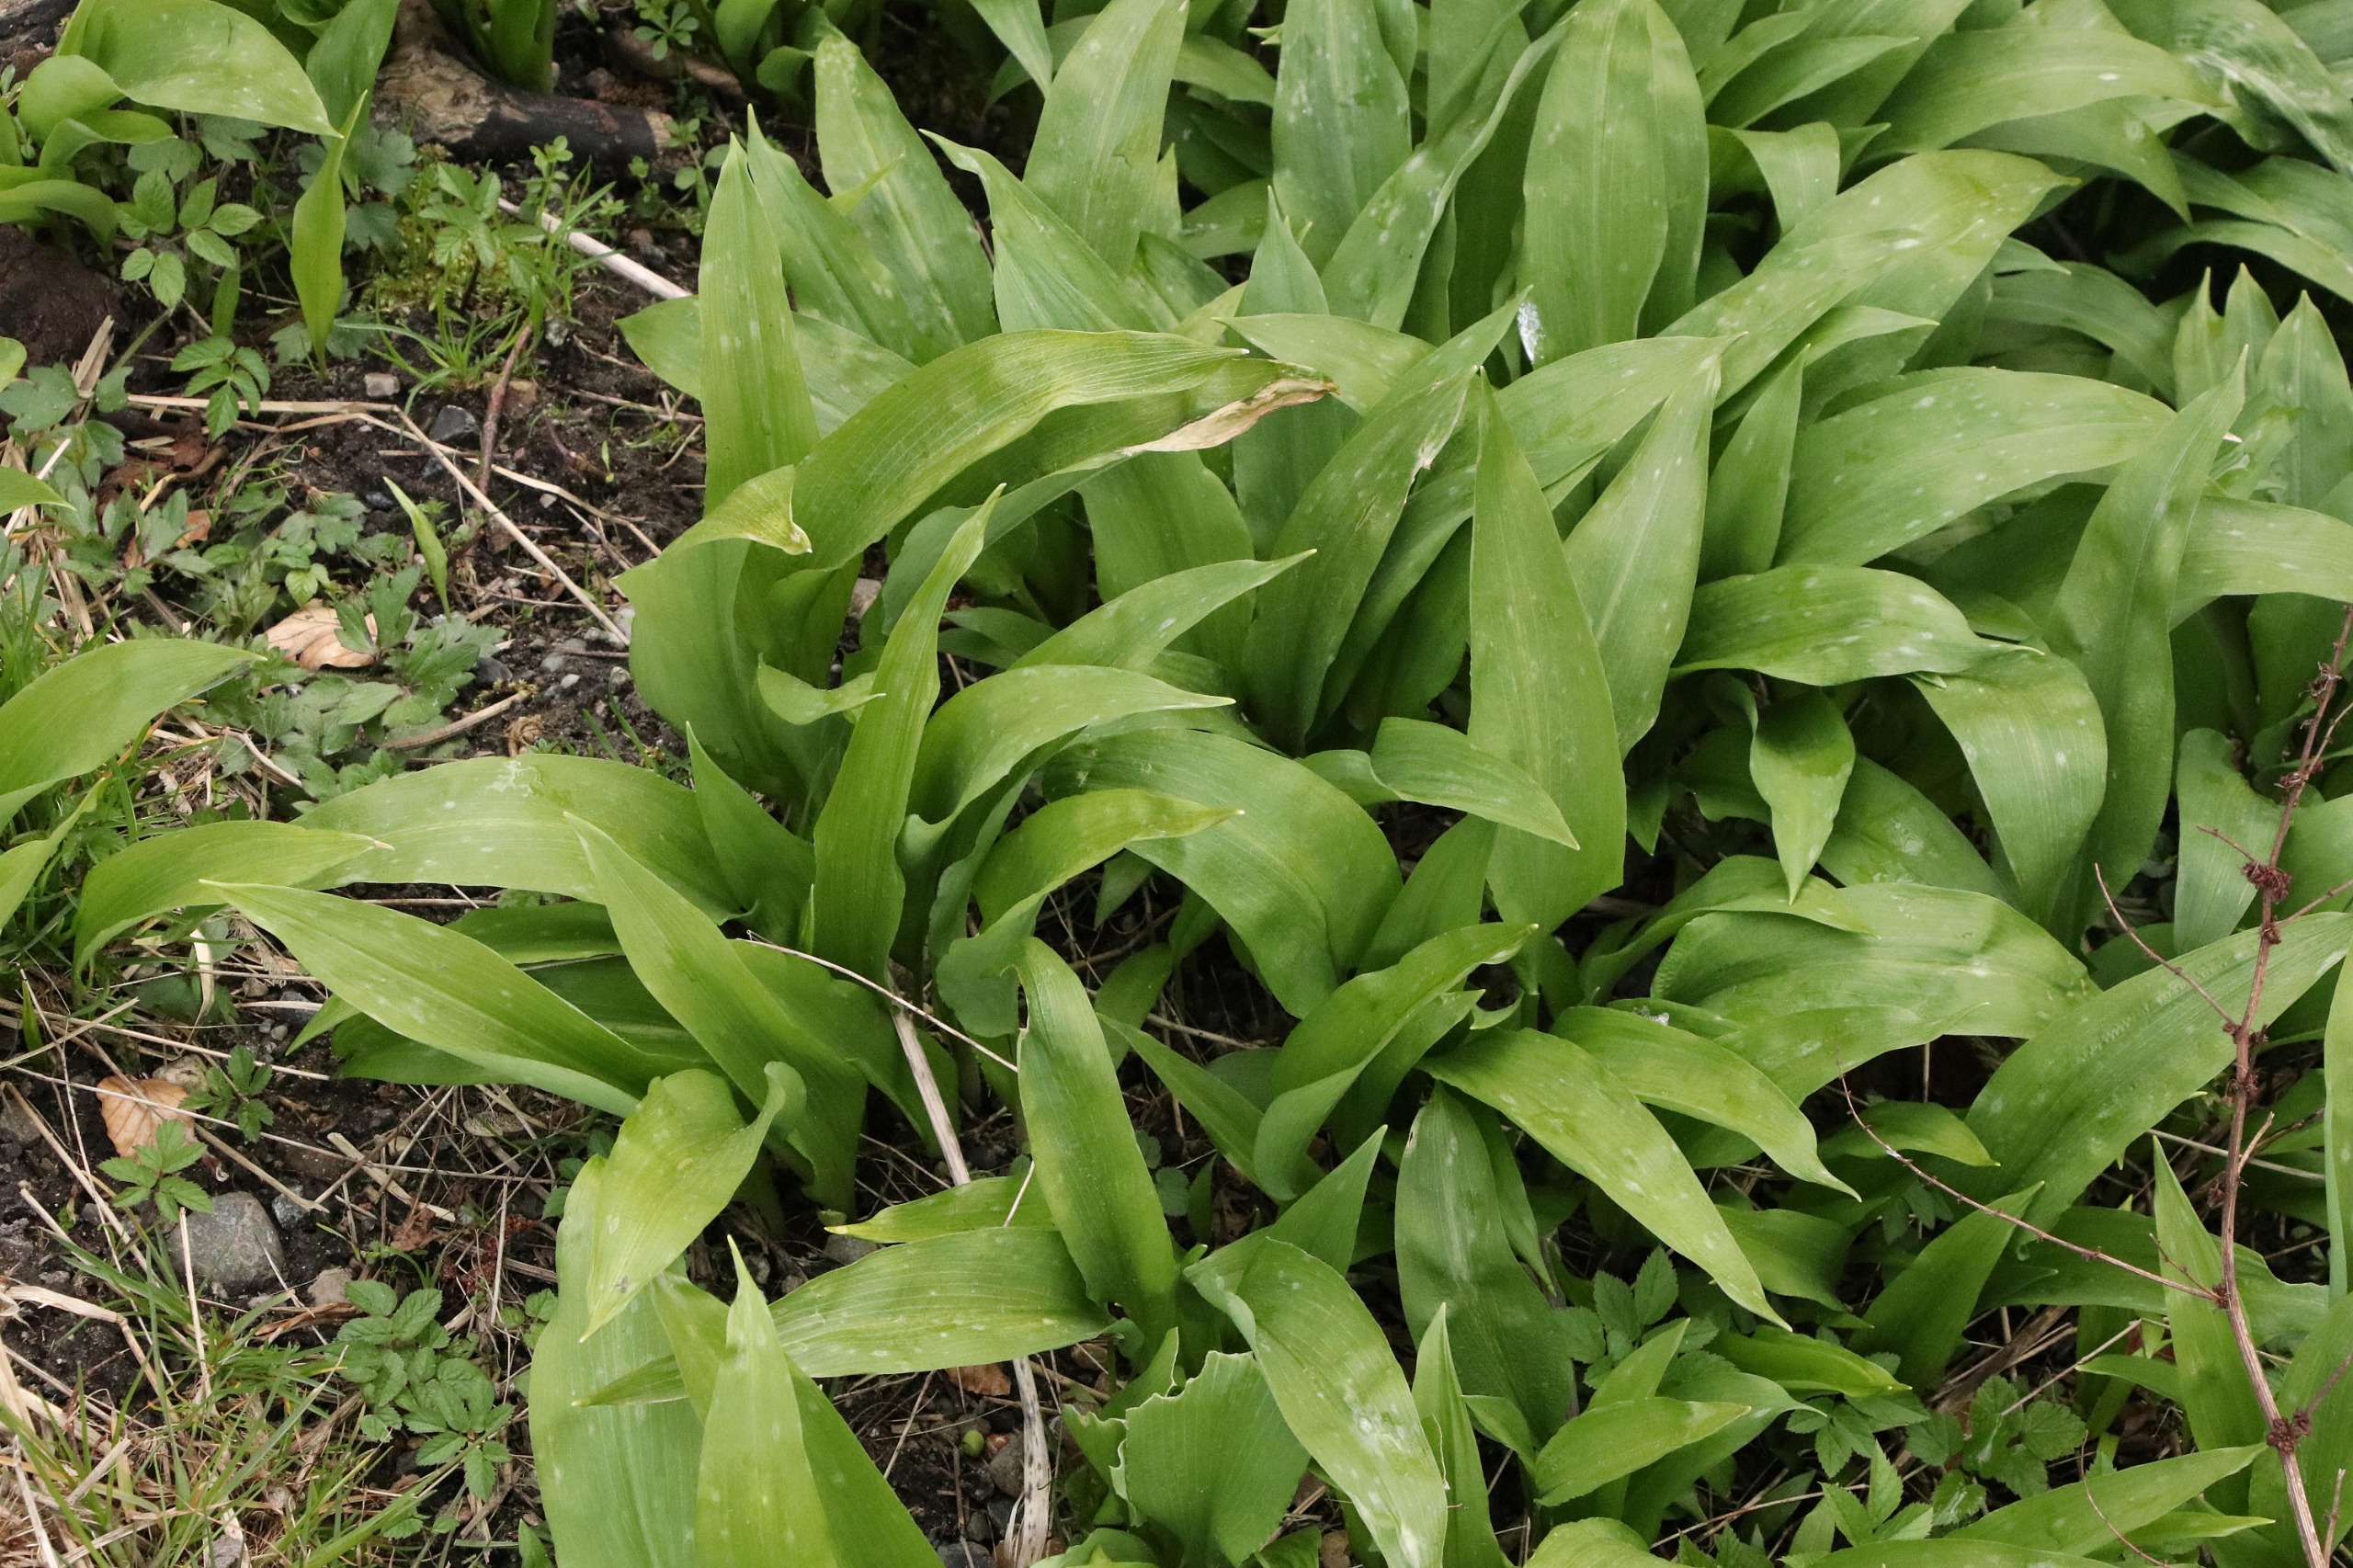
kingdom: Plantae
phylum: Tracheophyta
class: Liliopsida
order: Asparagales
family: Amaryllidaceae
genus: Allium
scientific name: Allium ursinum
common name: Rams-løg
